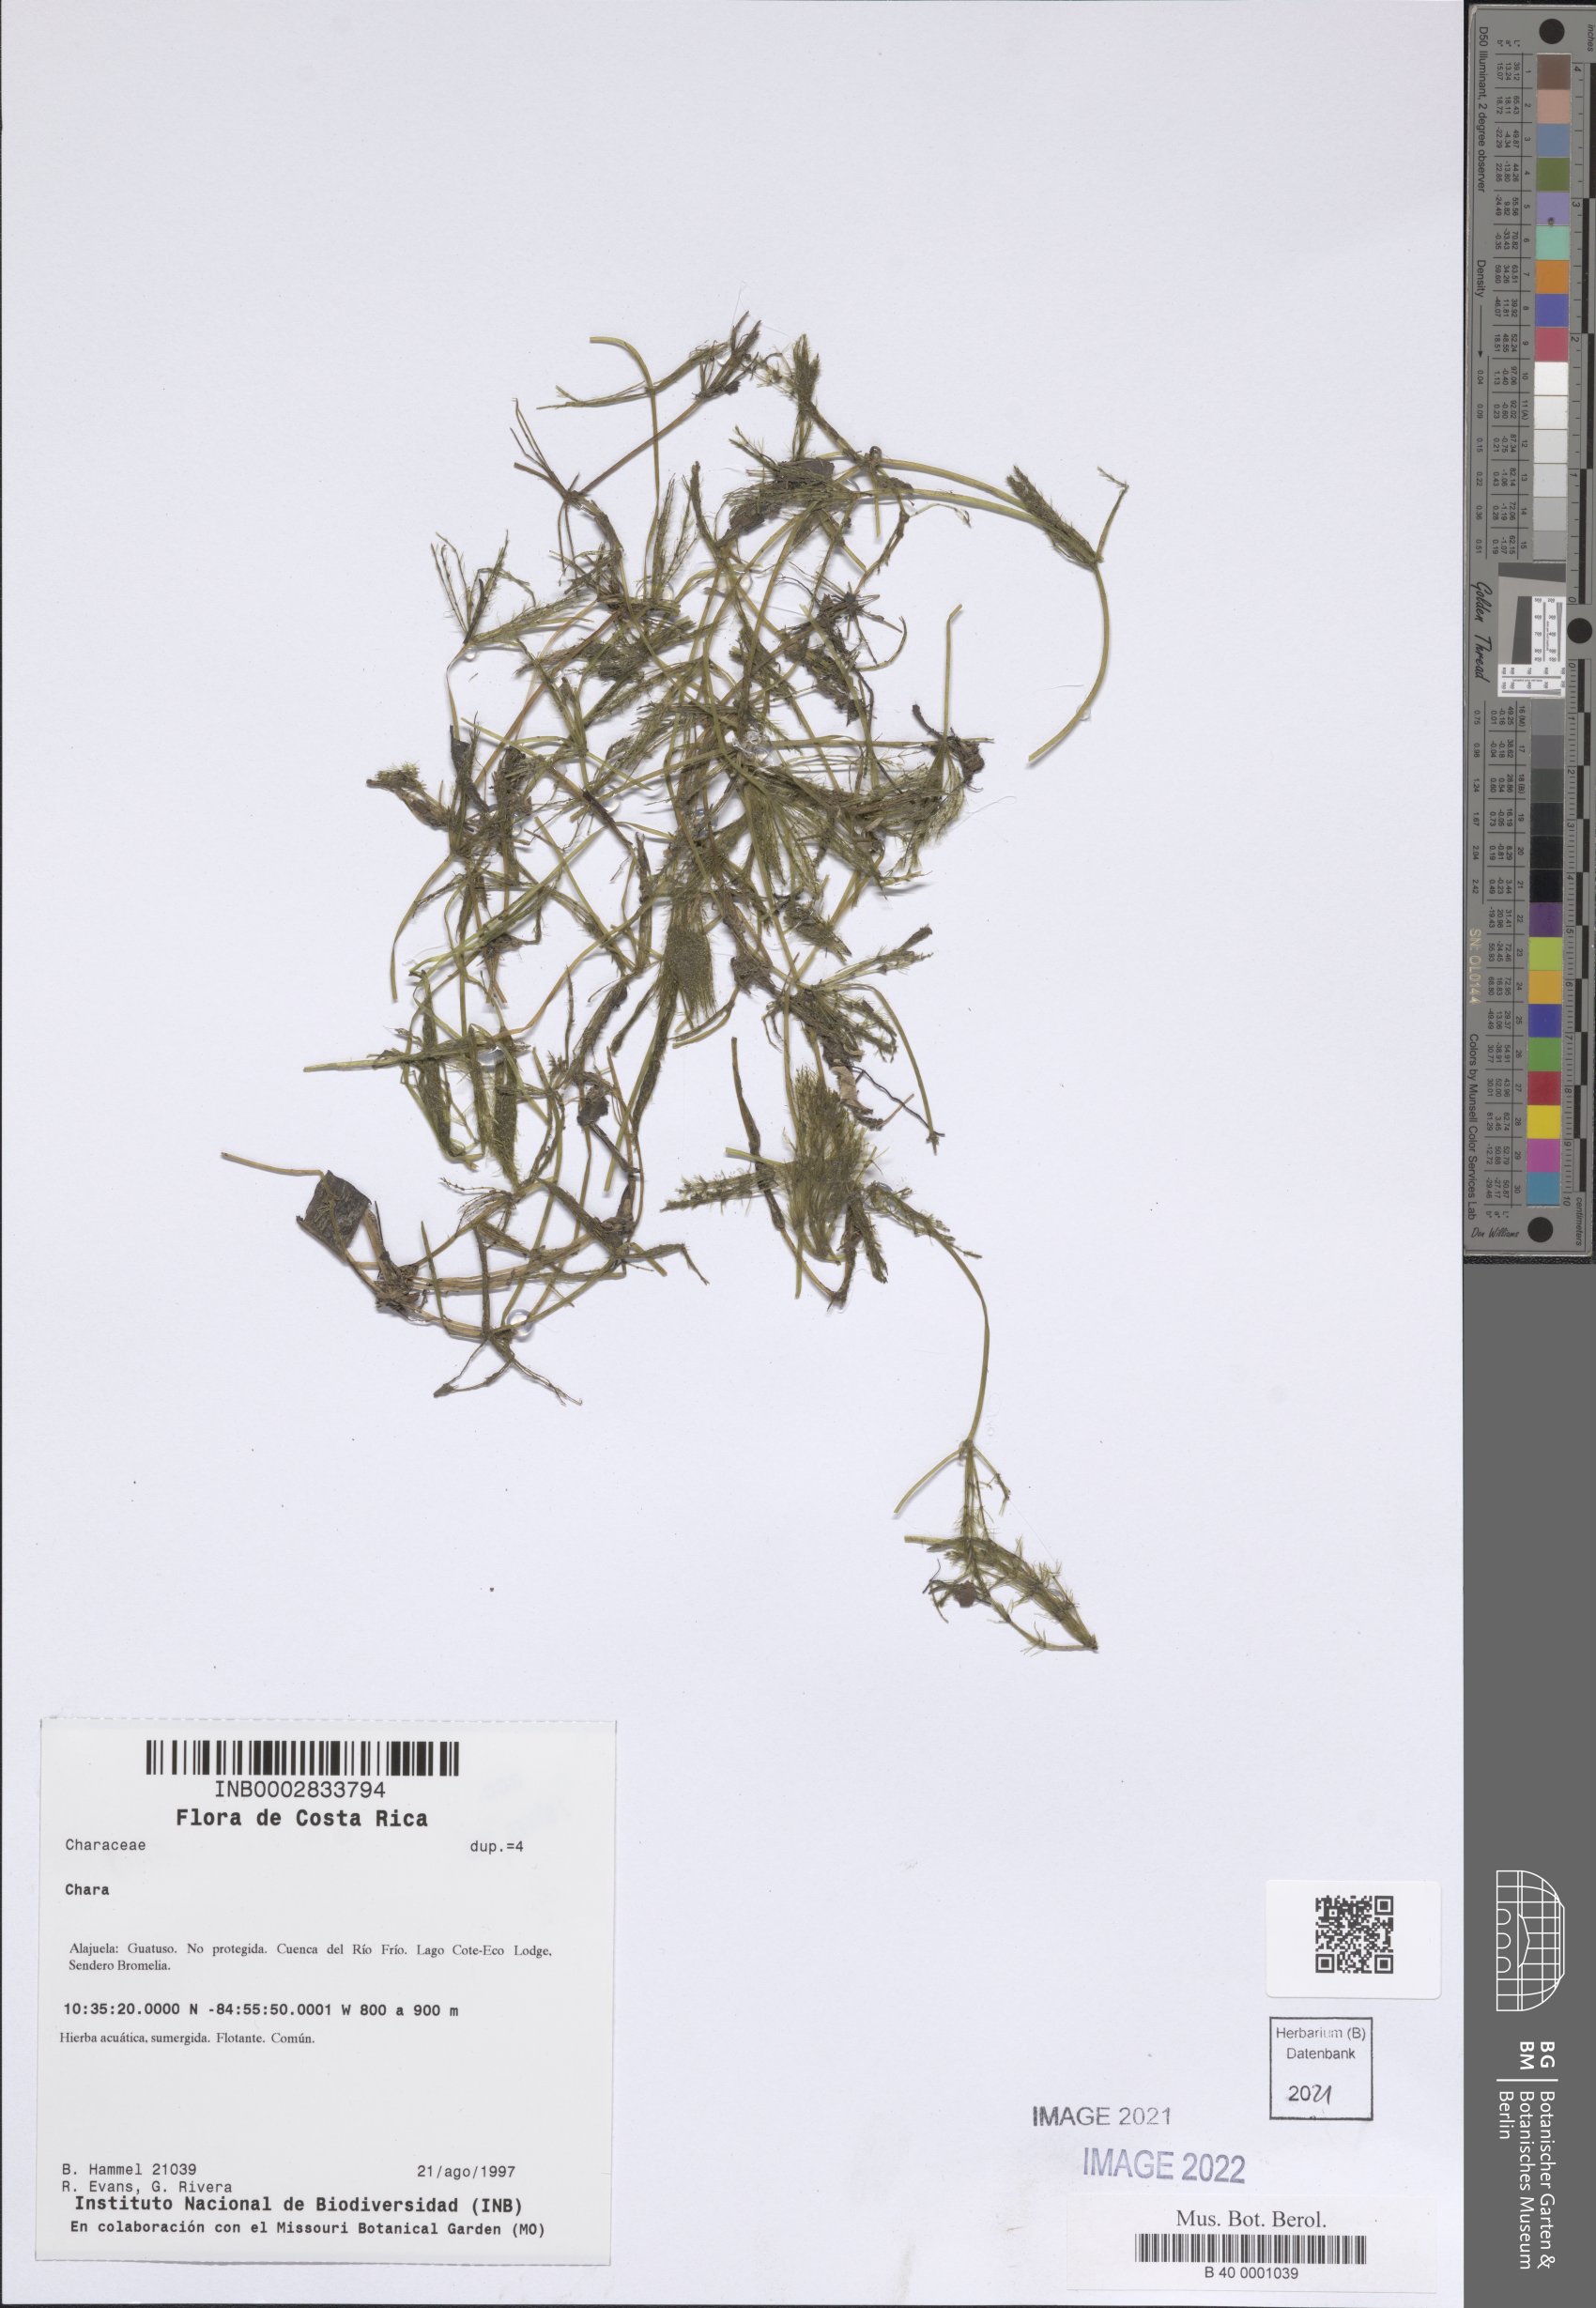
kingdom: Plantae
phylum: Charophyta
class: Charophyceae
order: Charales
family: Characeae
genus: Chara
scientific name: Chara
